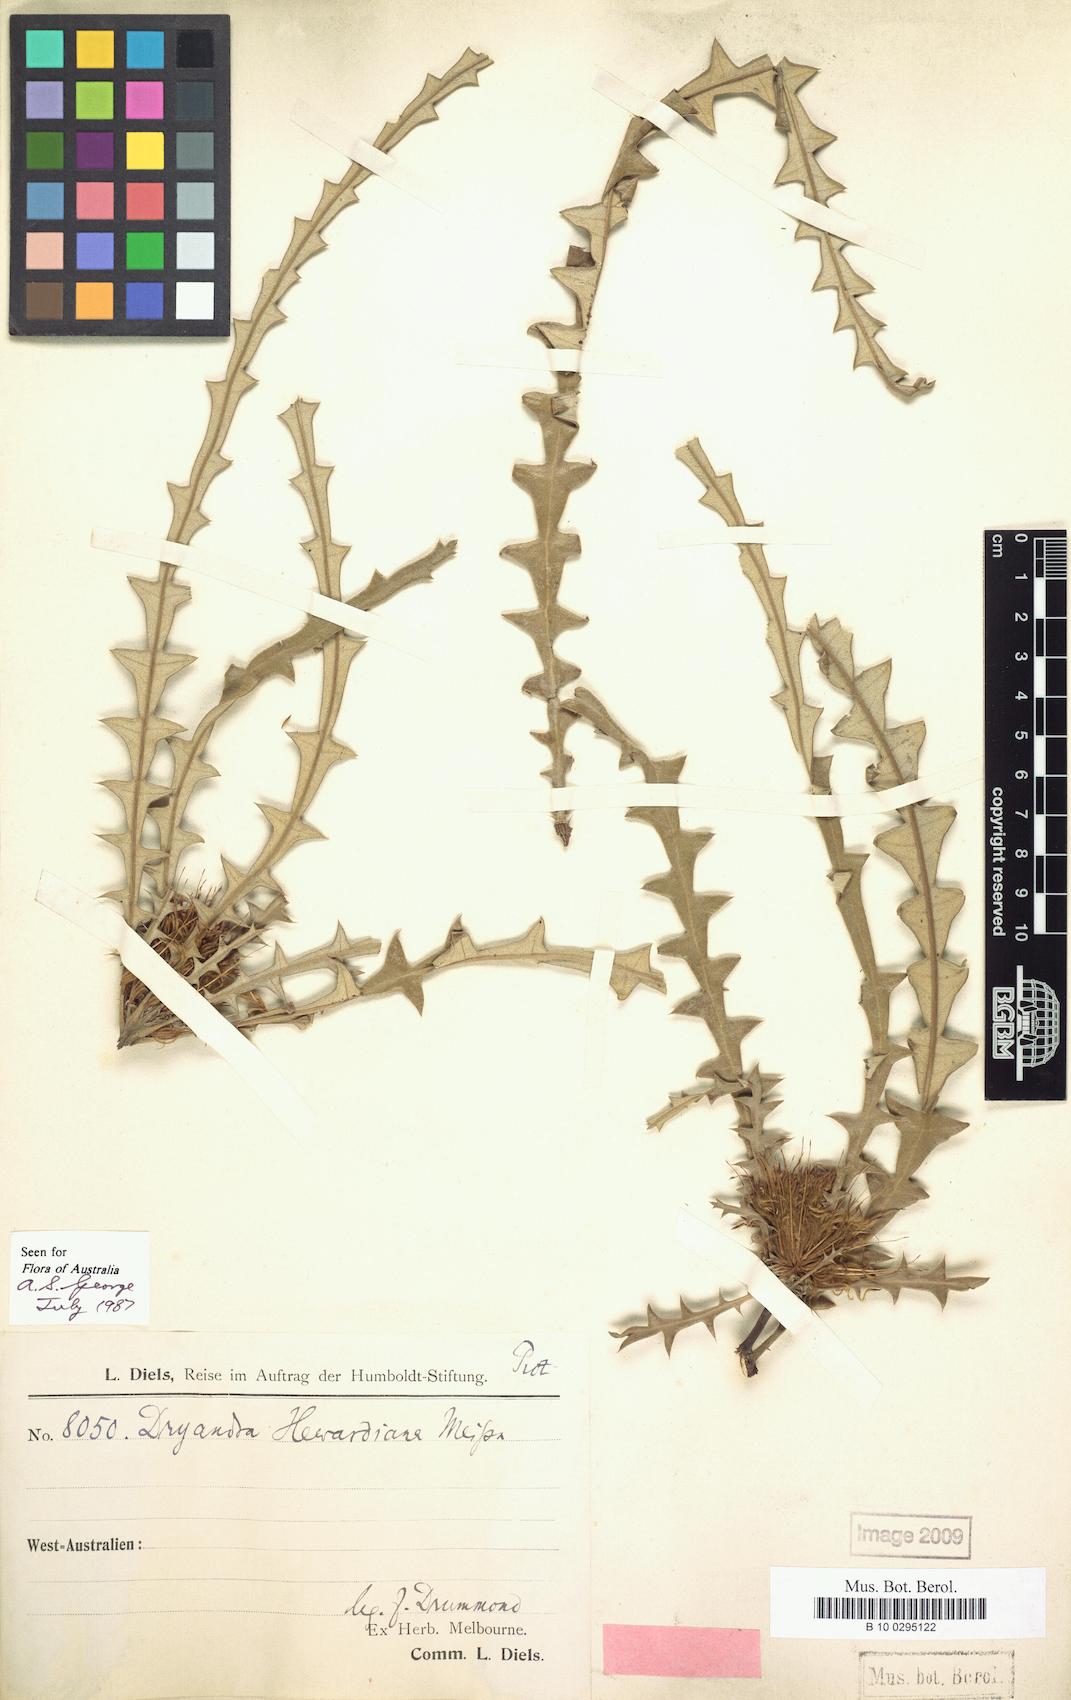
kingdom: Plantae
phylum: Tracheophyta
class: Magnoliopsida
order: Proteales
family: Proteaceae
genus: Banksia
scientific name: Banksia hewardiana
